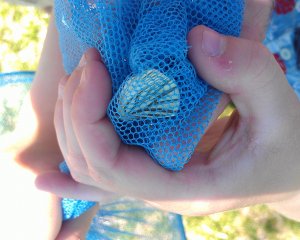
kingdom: Animalia
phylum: Arthropoda
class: Insecta
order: Lepidoptera
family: Pieridae
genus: Pieris
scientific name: Pieris oleracea
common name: Mustard White
